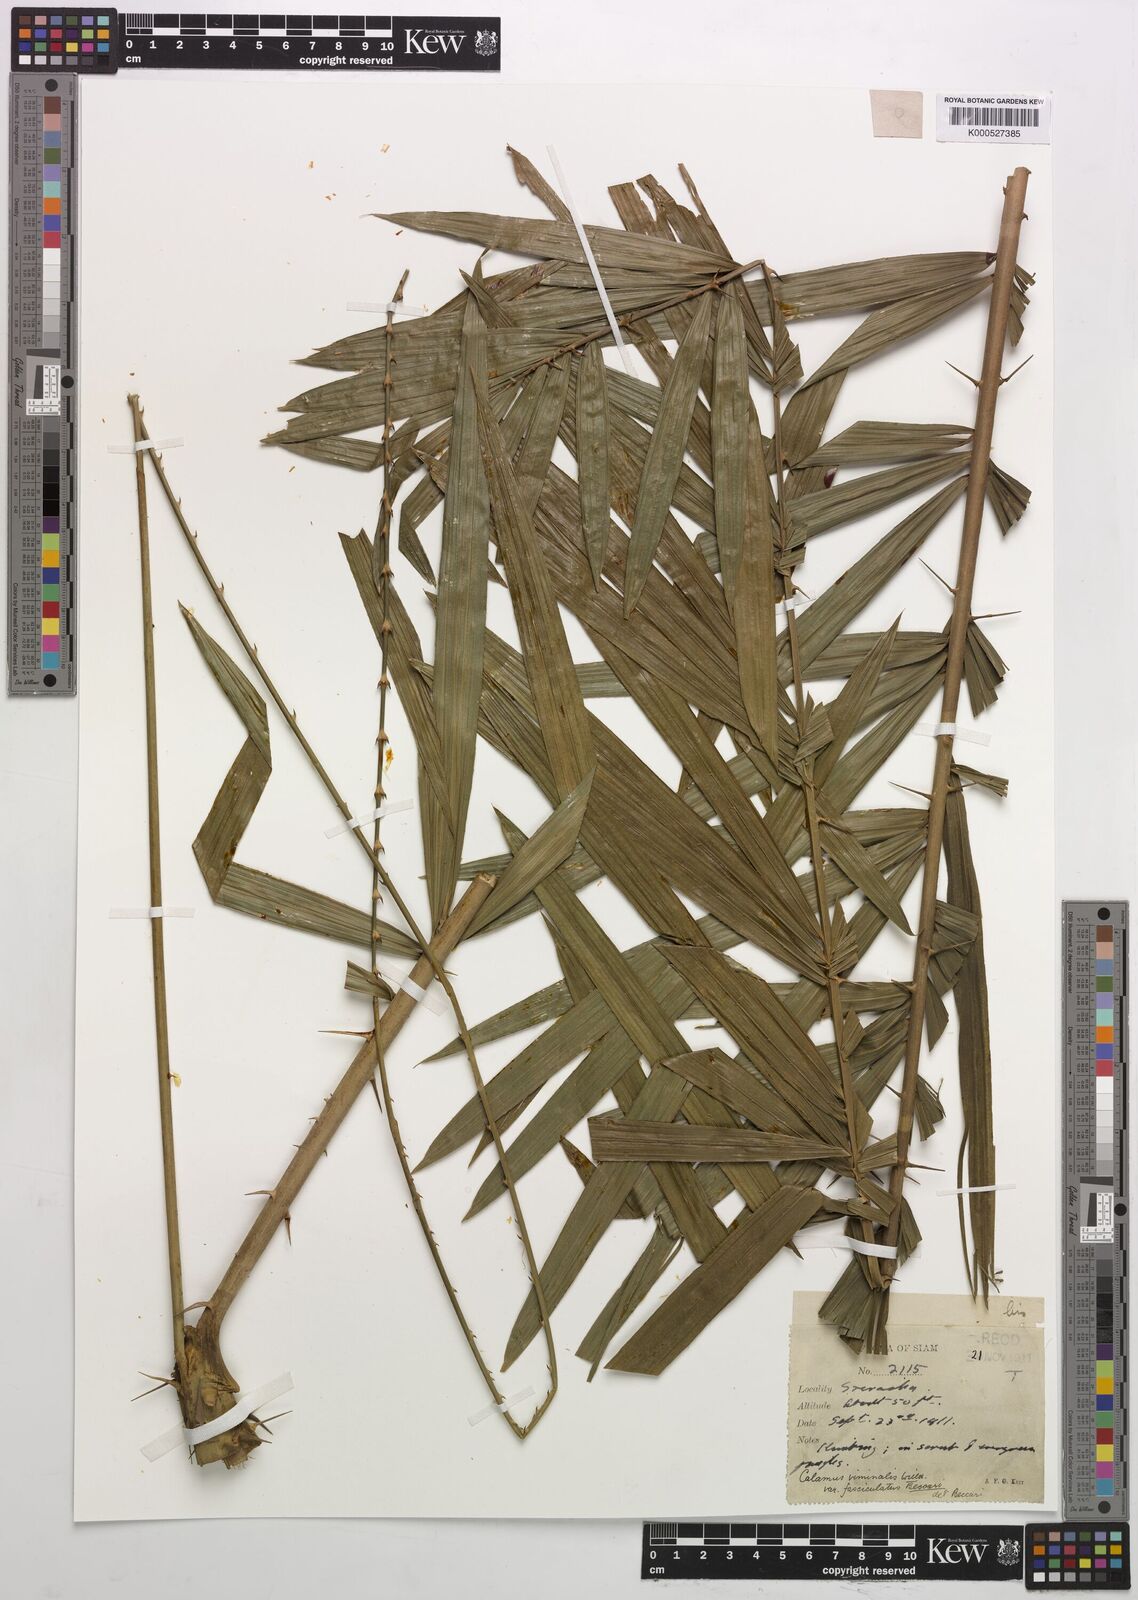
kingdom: Plantae
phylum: Tracheophyta
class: Liliopsida
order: Arecales
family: Arecaceae
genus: Calamus
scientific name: Calamus viminalis
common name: Osier-like rattan palm
